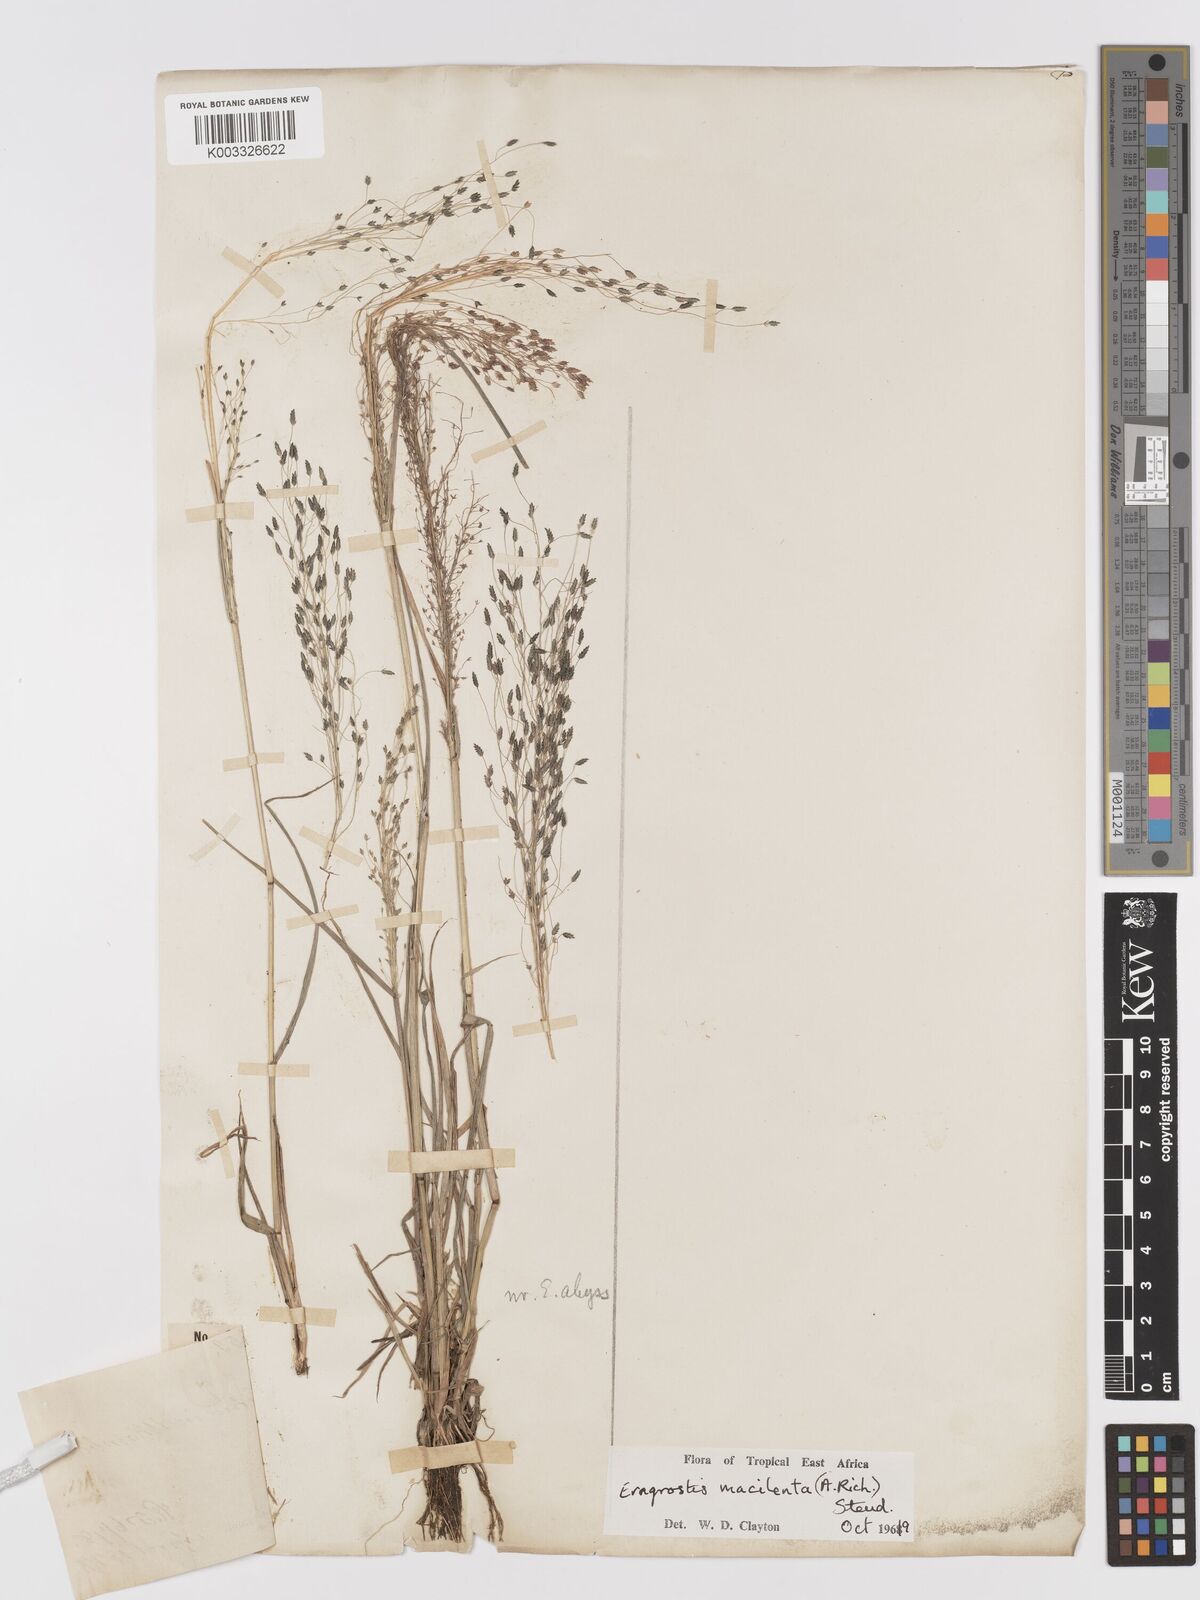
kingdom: Plantae
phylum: Tracheophyta
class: Liliopsida
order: Poales
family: Poaceae
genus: Eragrostis
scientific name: Eragrostis macilenta
